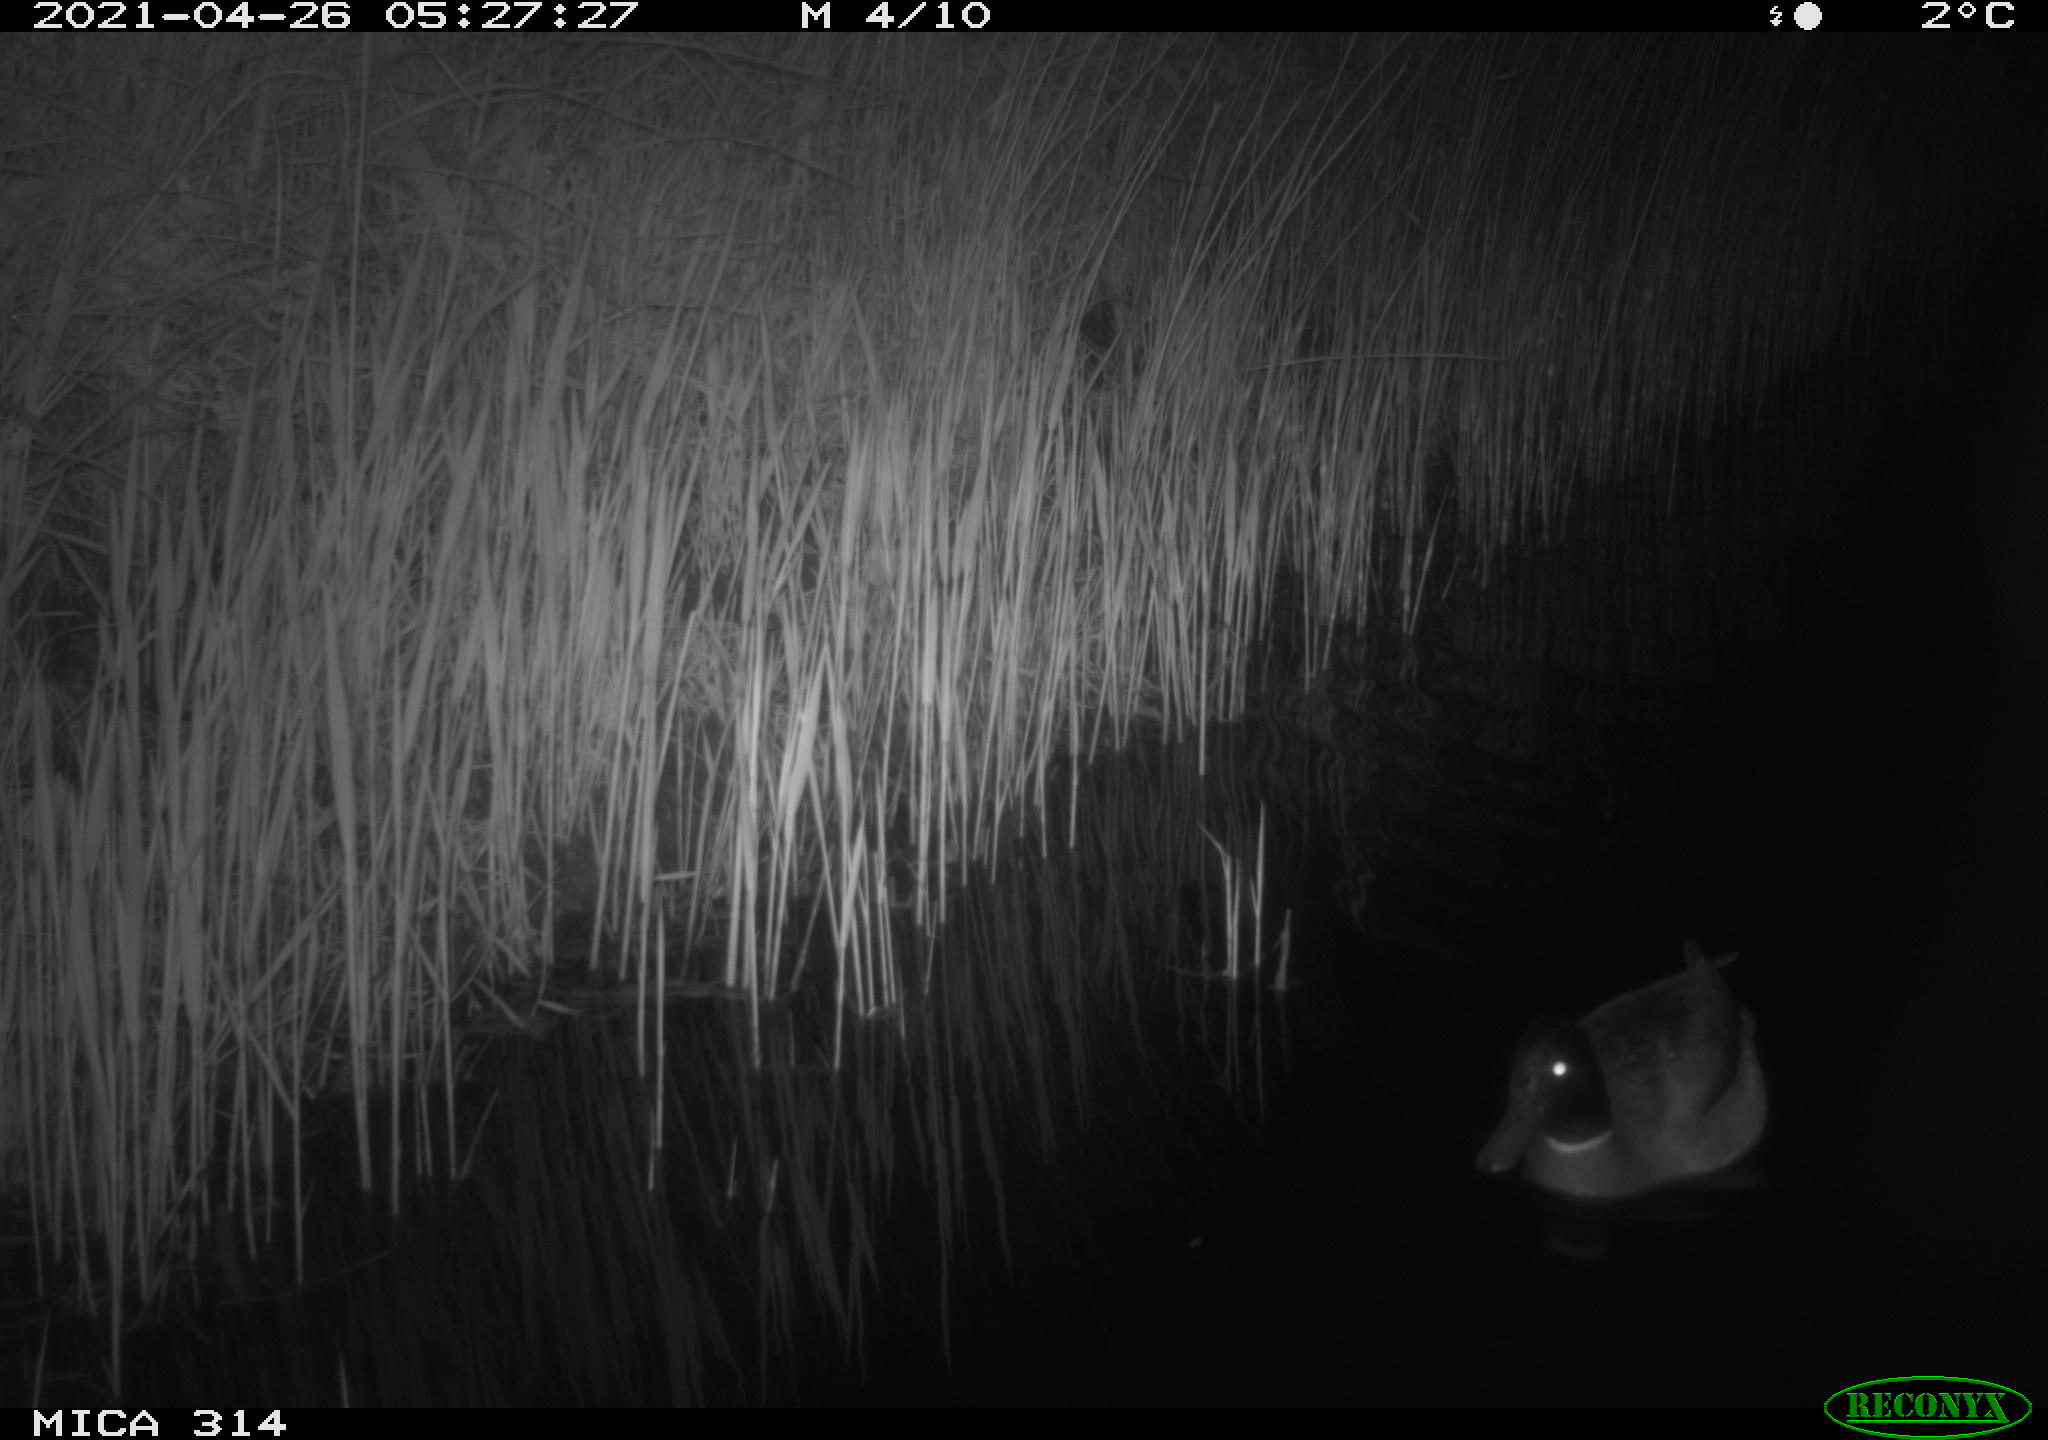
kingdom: Animalia
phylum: Chordata
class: Aves
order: Anseriformes
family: Anatidae
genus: Anas
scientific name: Anas platyrhynchos
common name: Mallard
